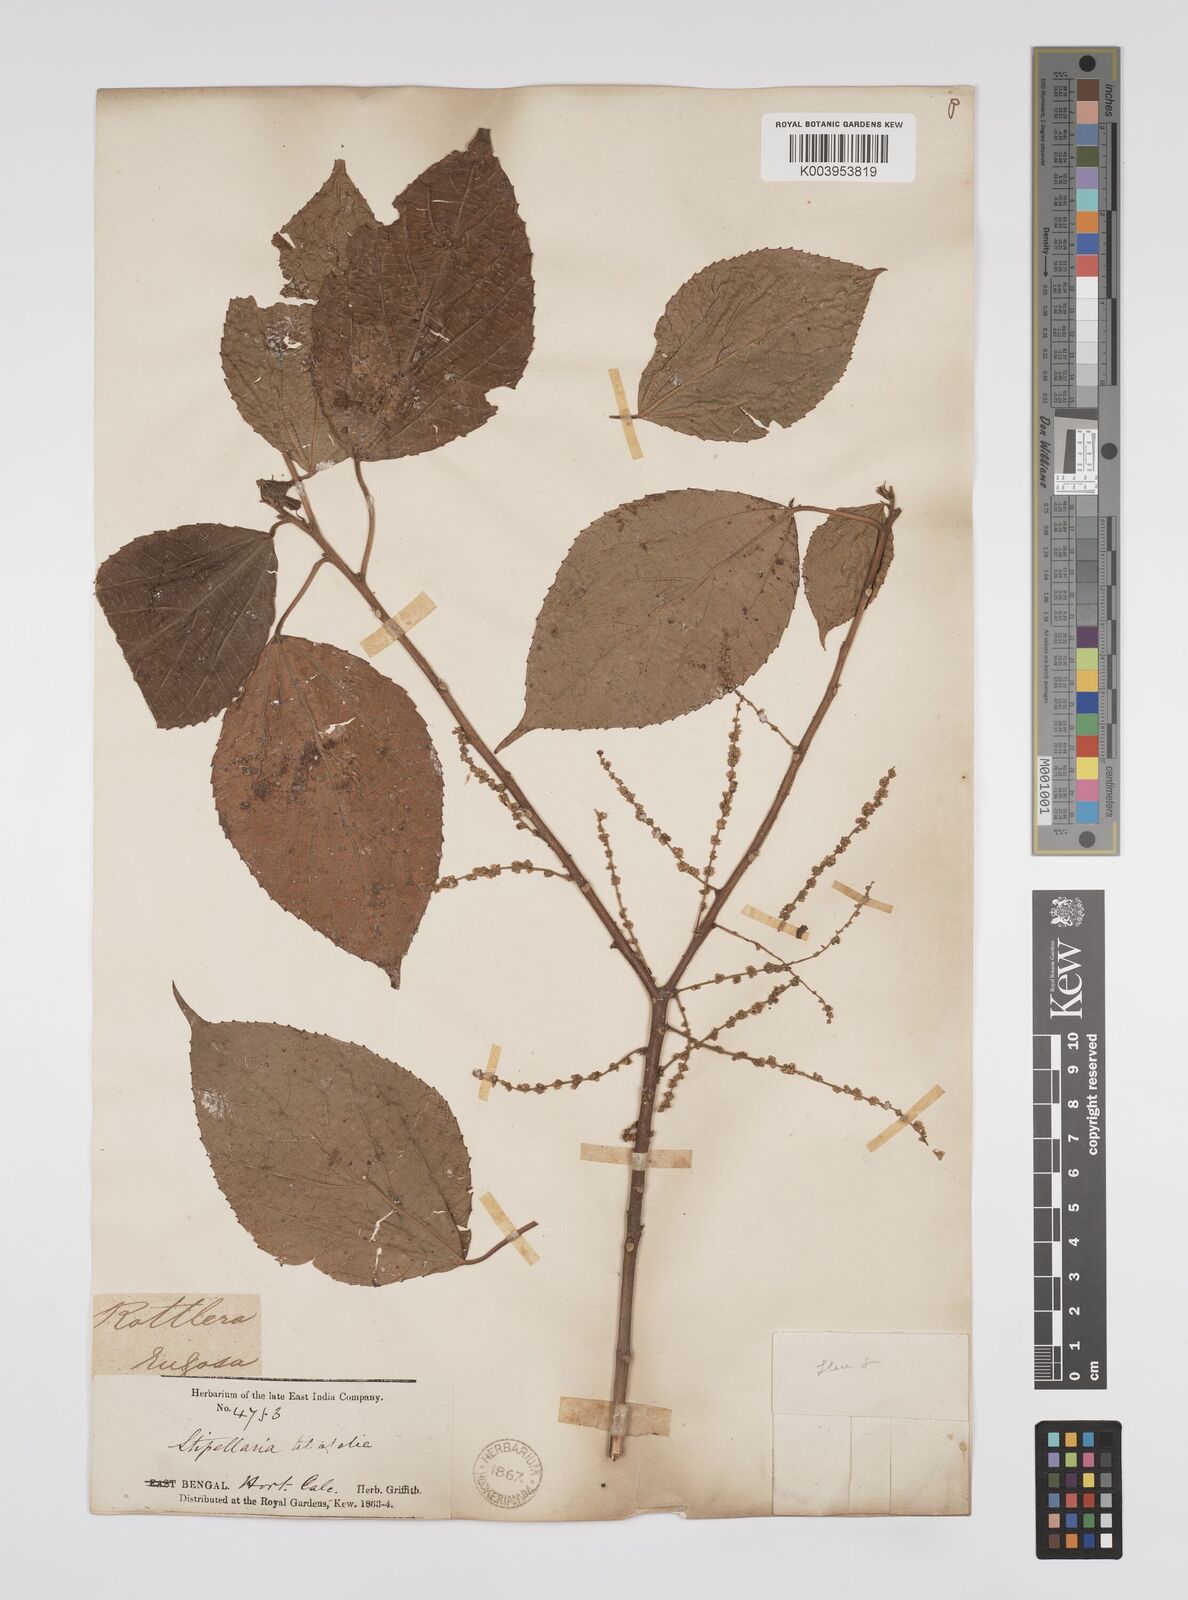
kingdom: Plantae
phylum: Tracheophyta
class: Magnoliopsida
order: Malpighiales
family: Euphorbiaceae
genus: Alchornea
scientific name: Alchornea tiliifolia
